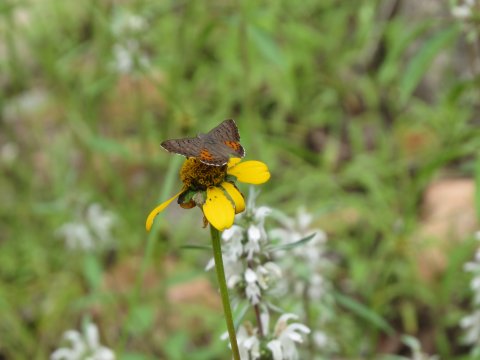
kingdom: Animalia
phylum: Arthropoda
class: Insecta
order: Lepidoptera
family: Sesiidae
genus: Sesia
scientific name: Sesia Emesis ares
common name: Ares Metalmark
